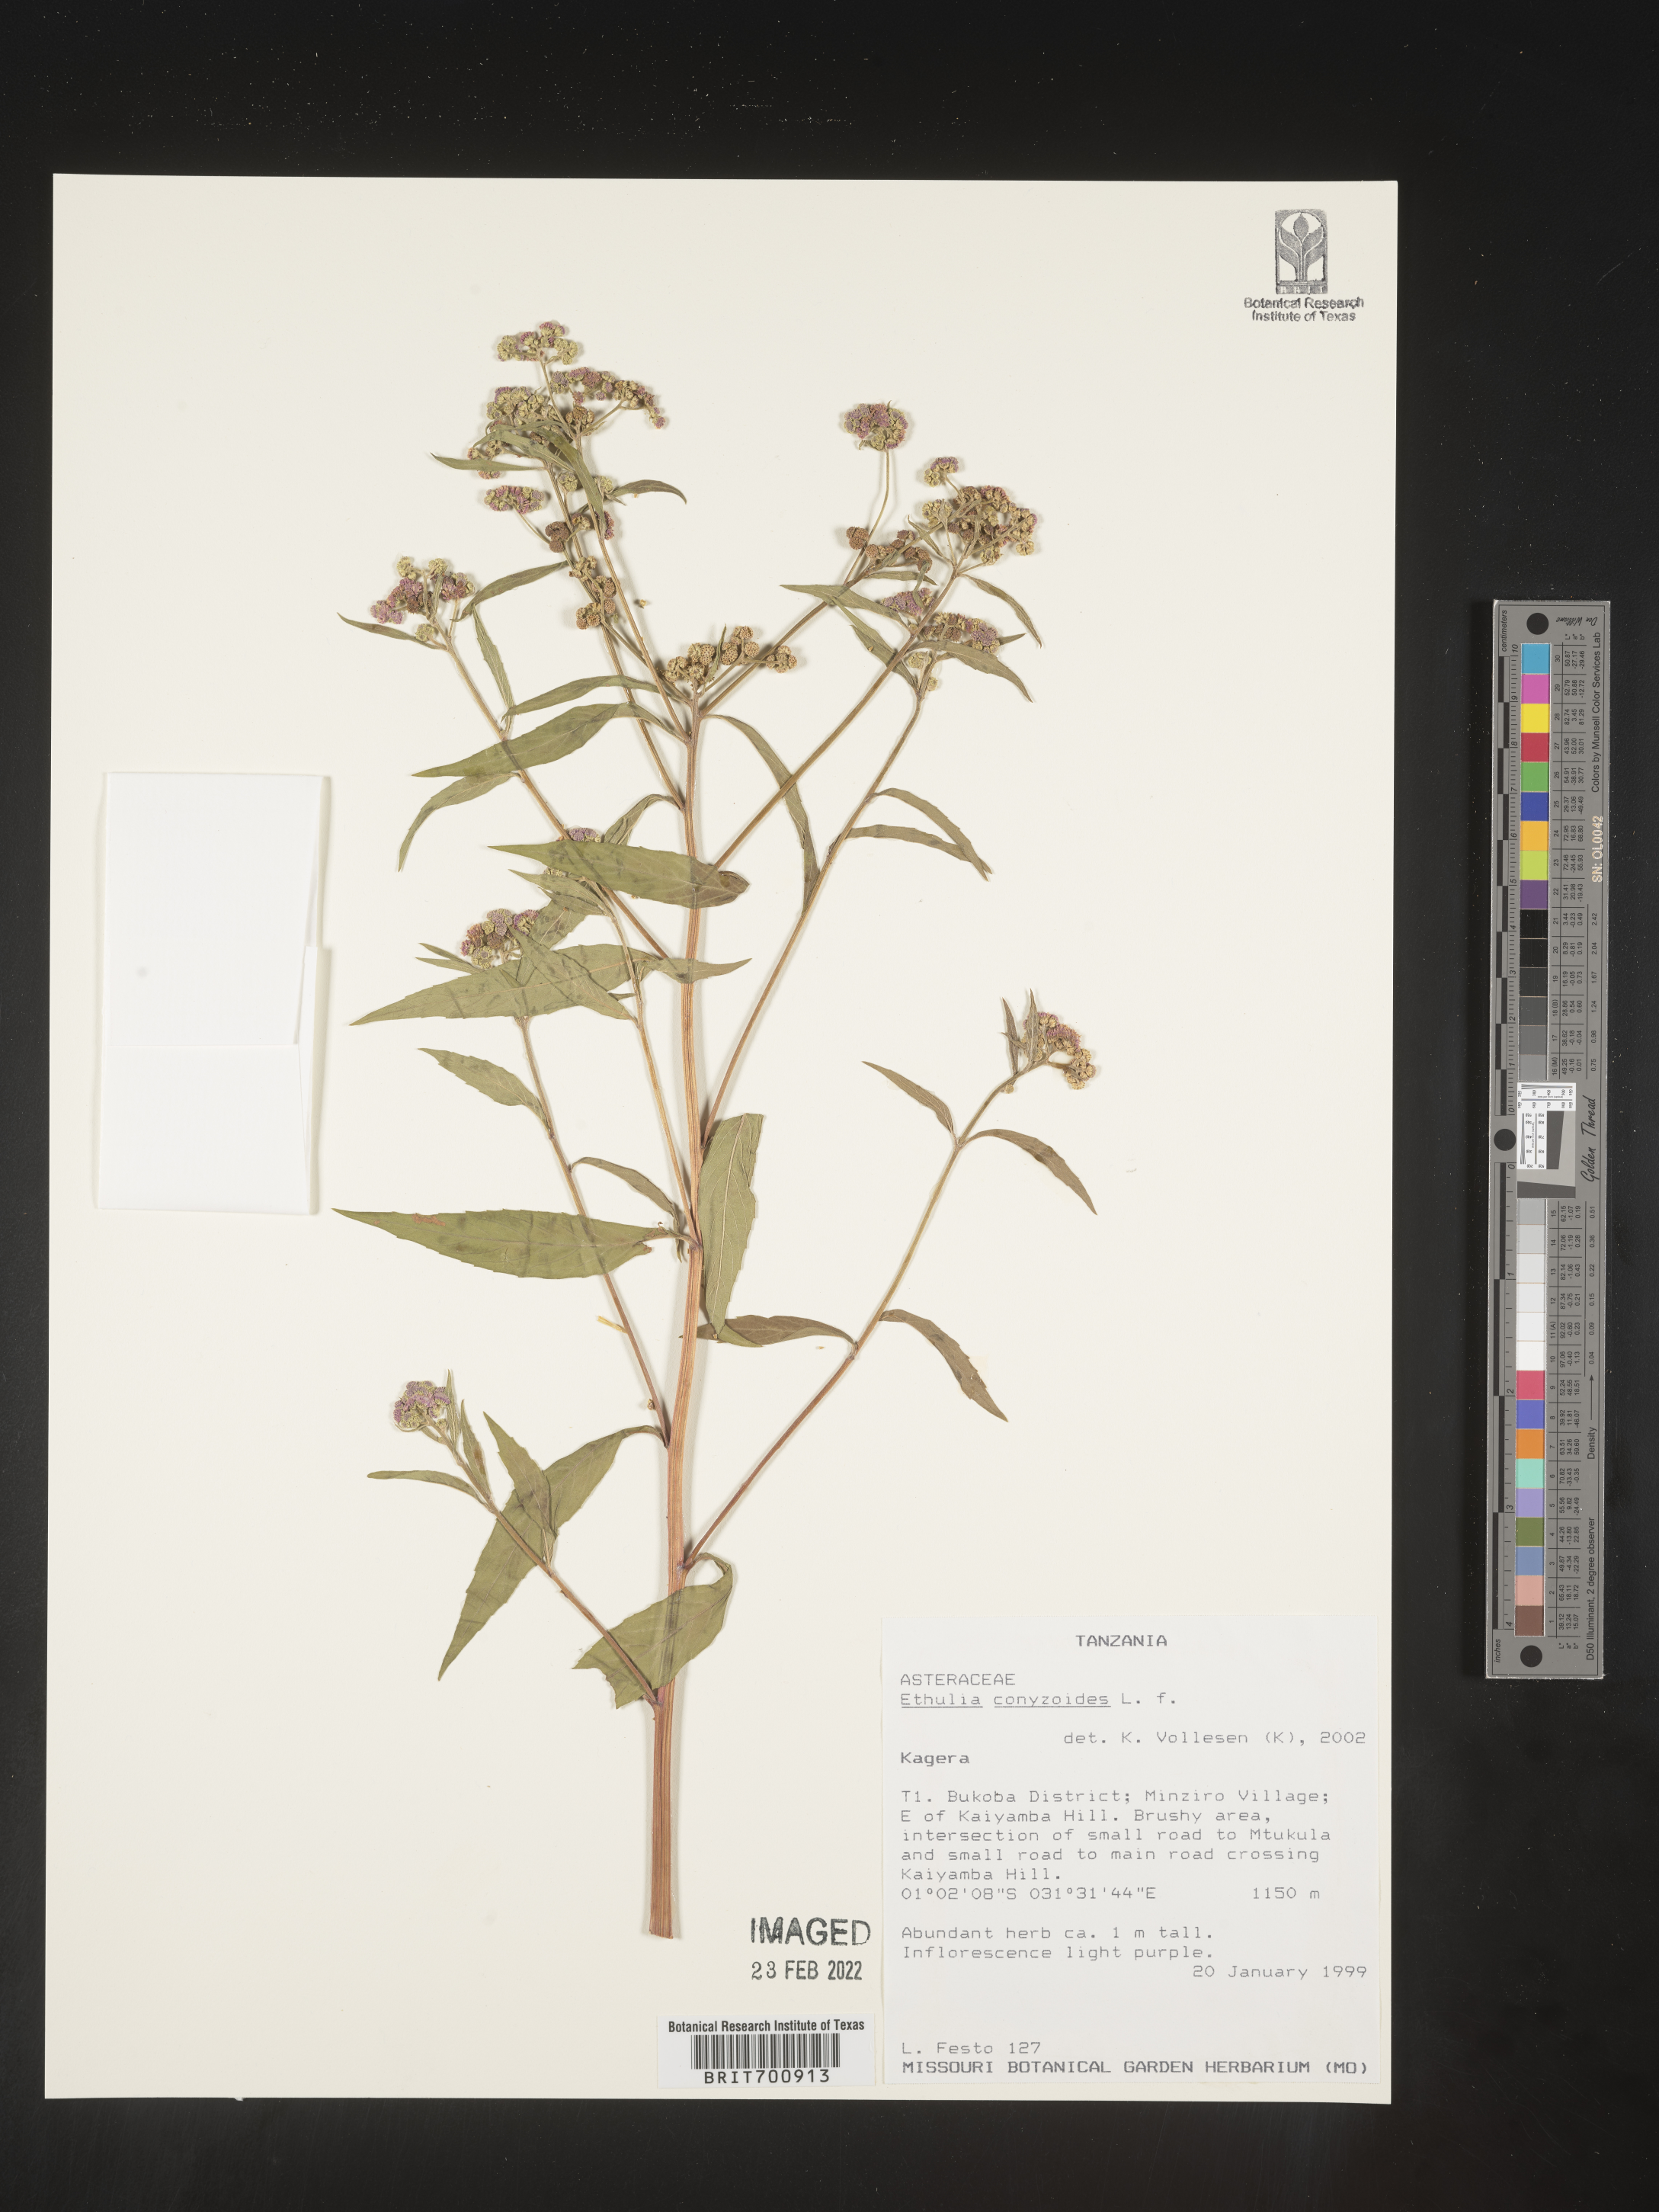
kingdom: Plantae
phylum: Tracheophyta
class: Magnoliopsida
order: Asterales
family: Asteraceae
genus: Ethulia
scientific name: Ethulia conyzoides
